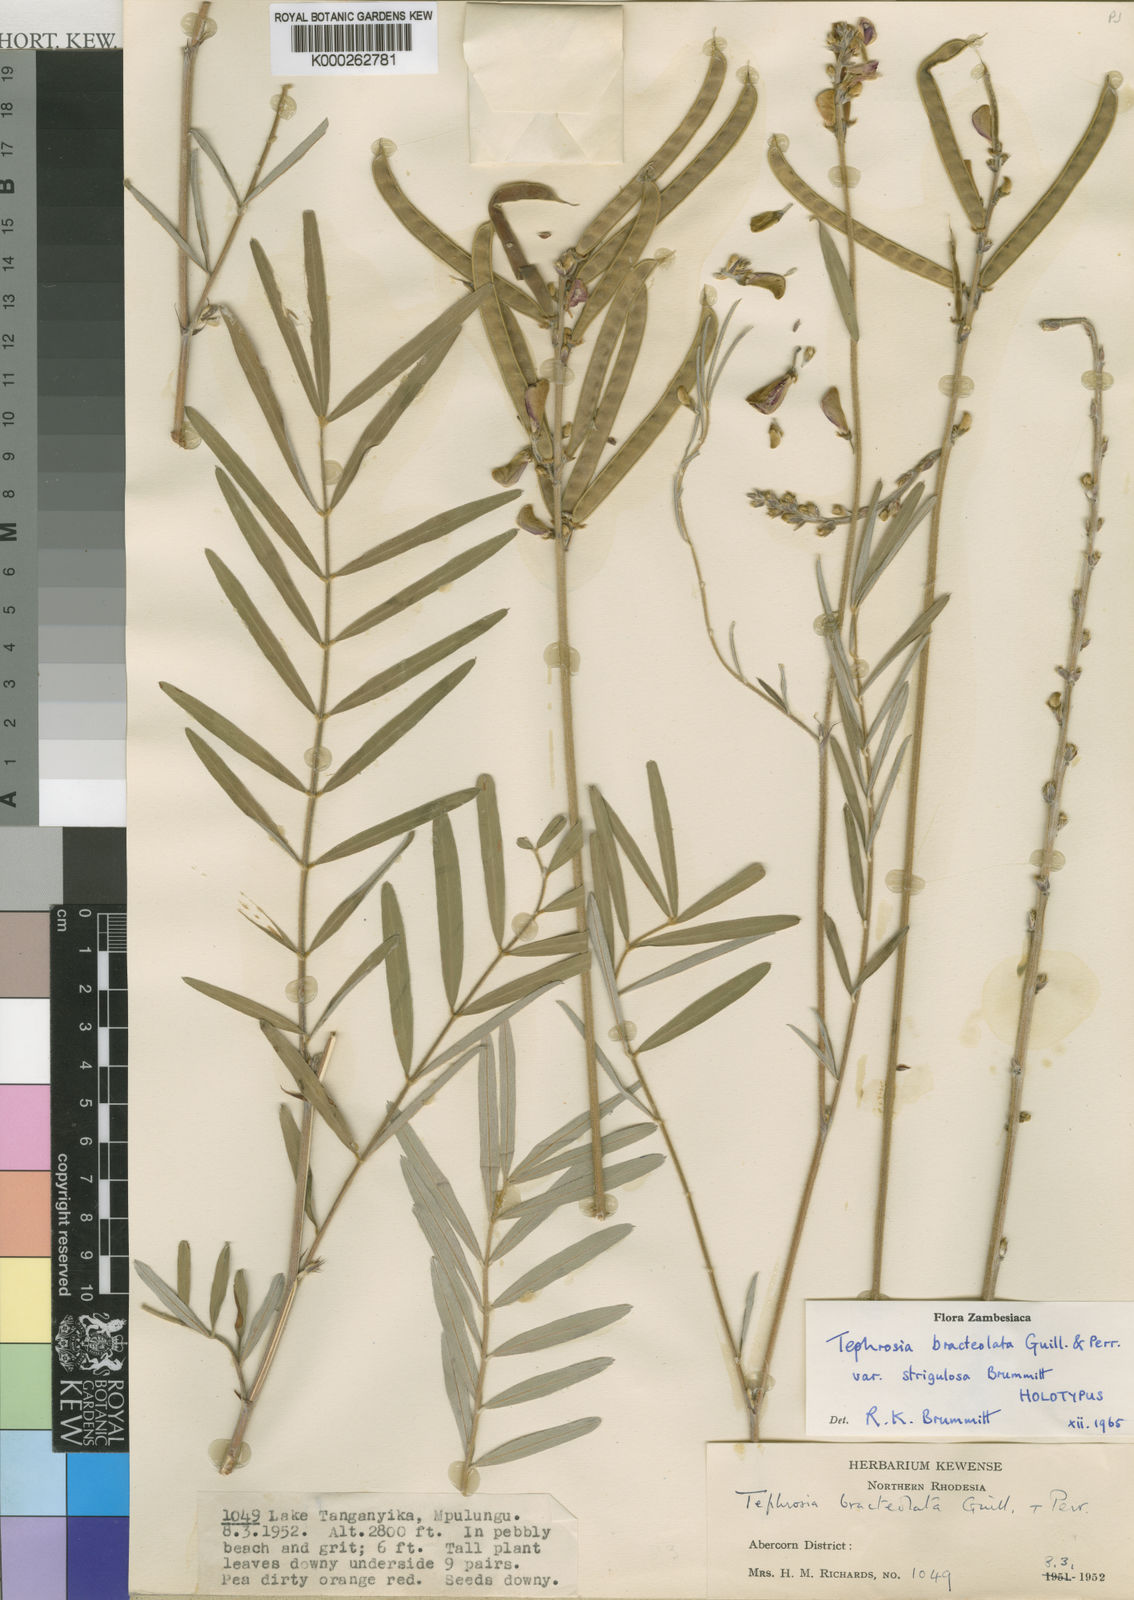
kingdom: Plantae
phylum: Tracheophyta
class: Magnoliopsida
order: Fabales
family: Fabaceae
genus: Tephrosia
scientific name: Tephrosia bracteolata
